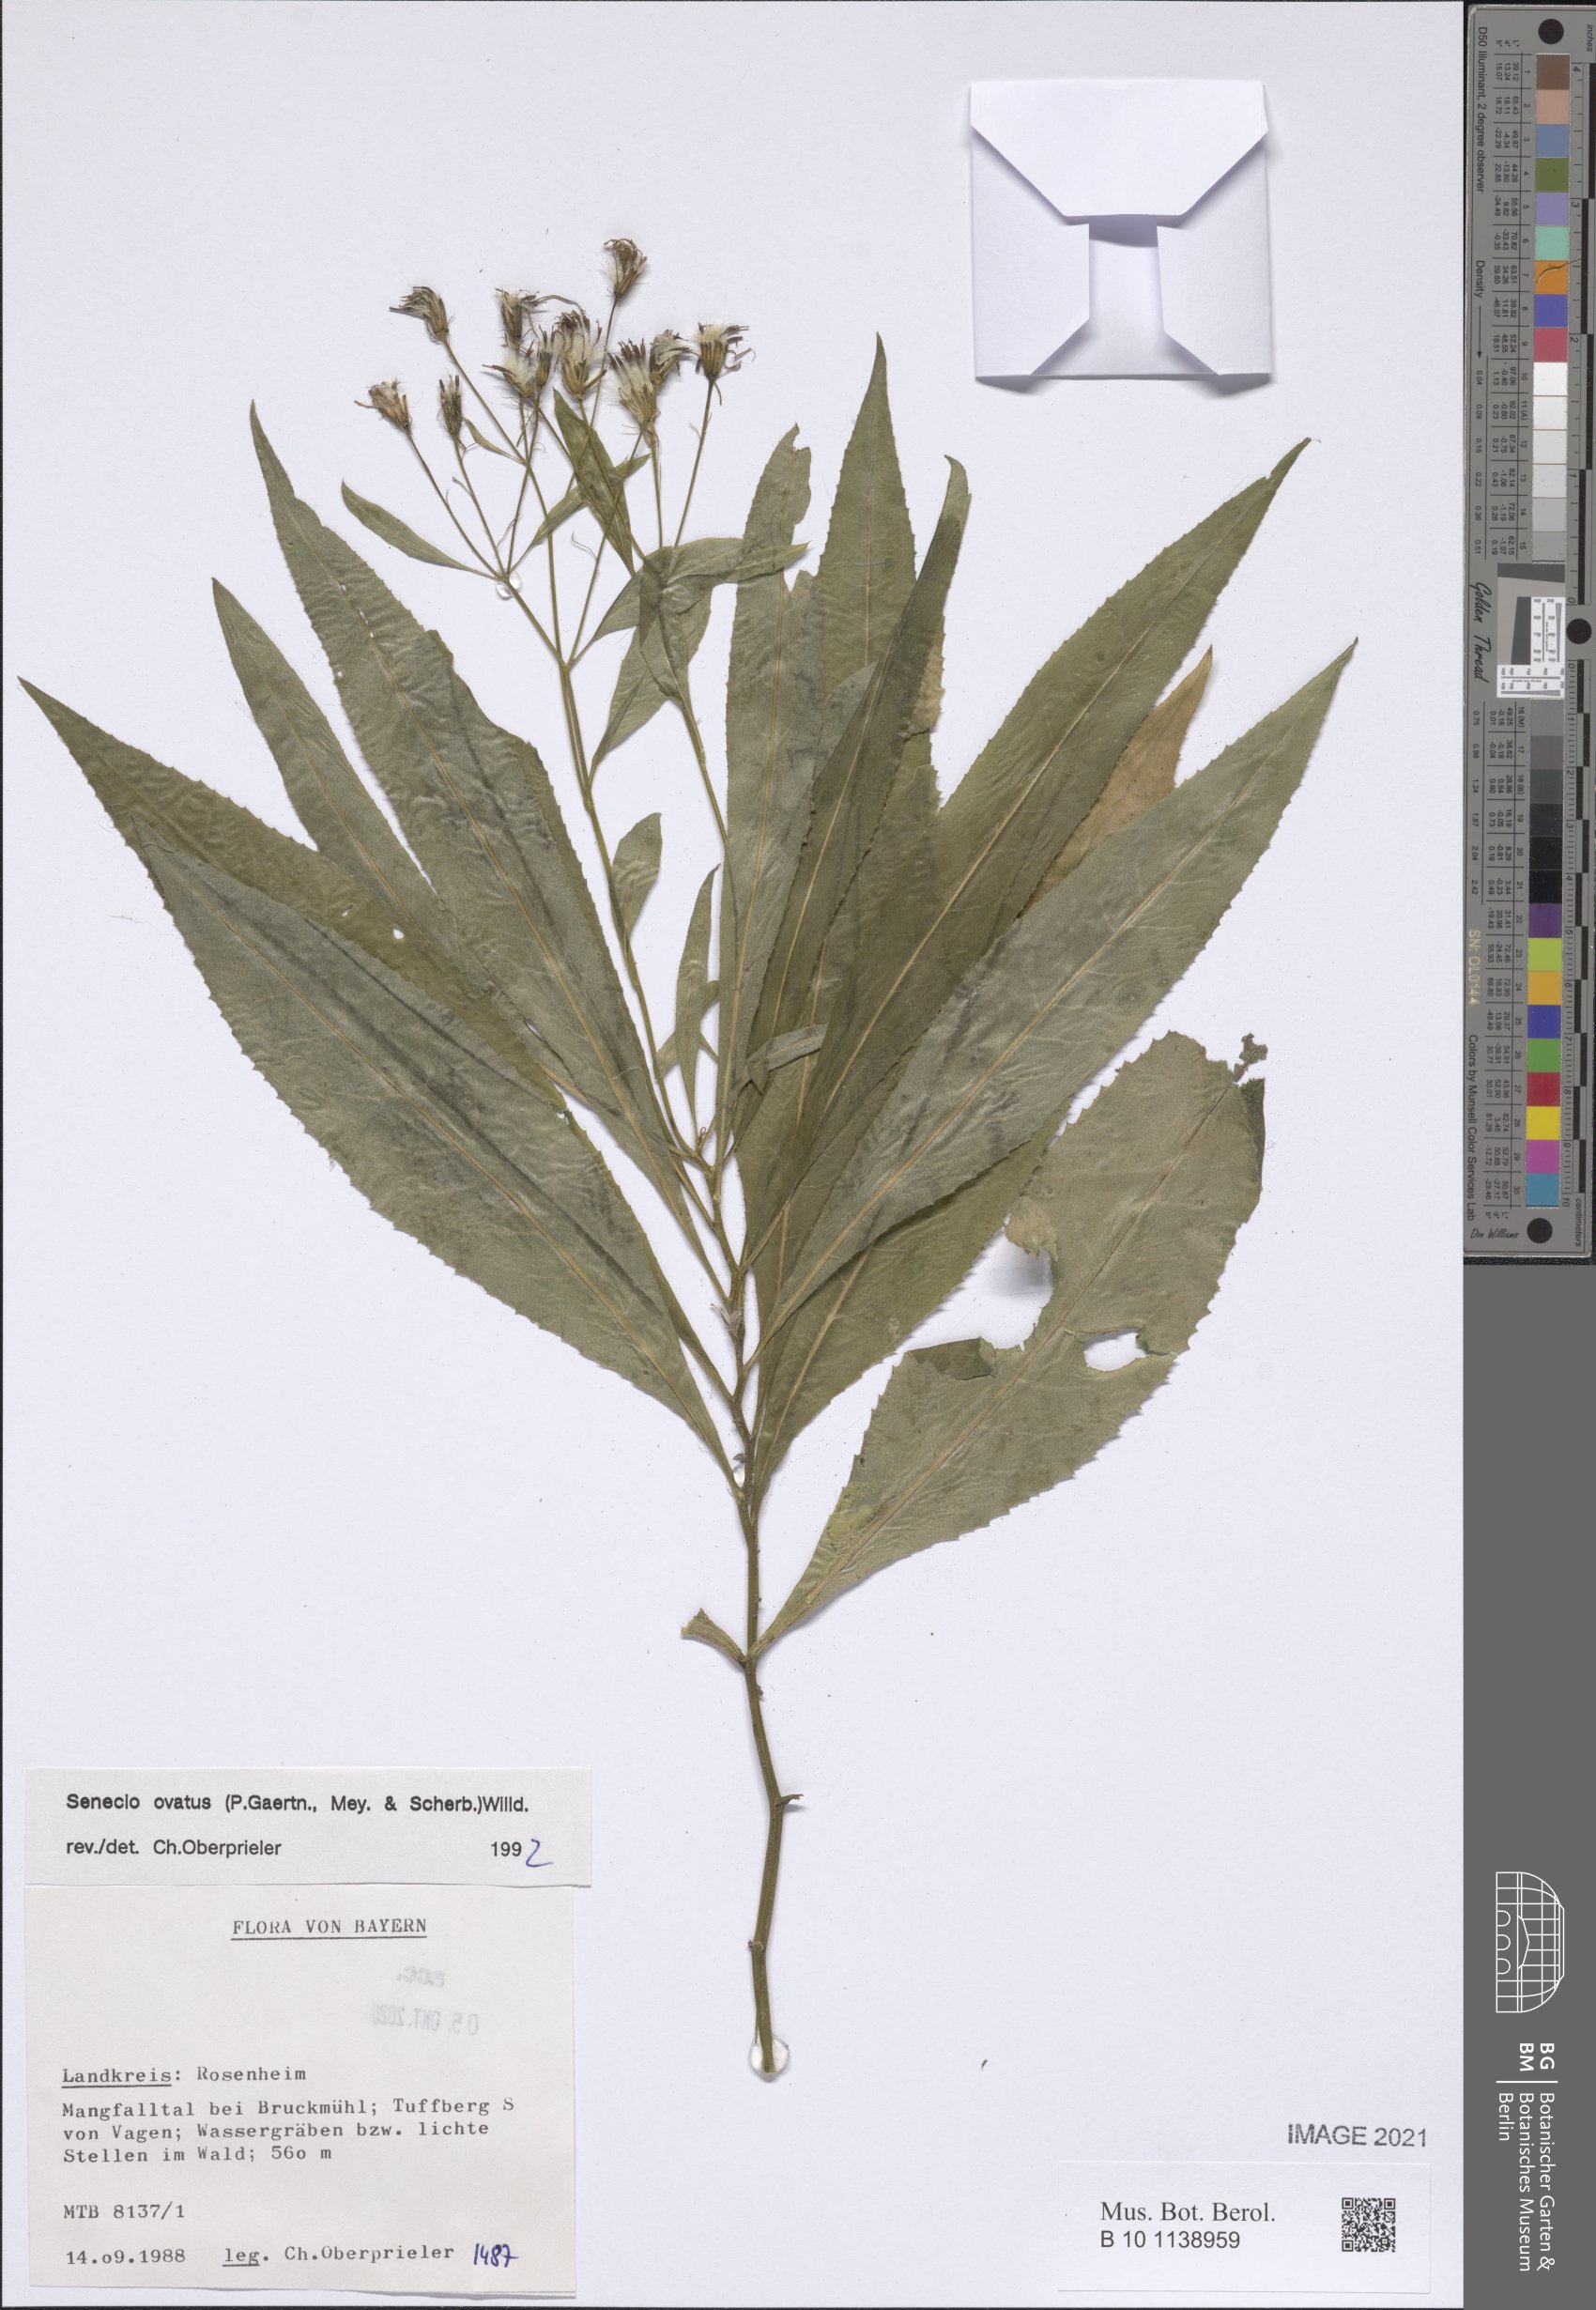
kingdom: Plantae
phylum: Tracheophyta
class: Magnoliopsida
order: Asterales
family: Asteraceae
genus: Senecio
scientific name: Senecio ovatus
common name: Wood ragwort
